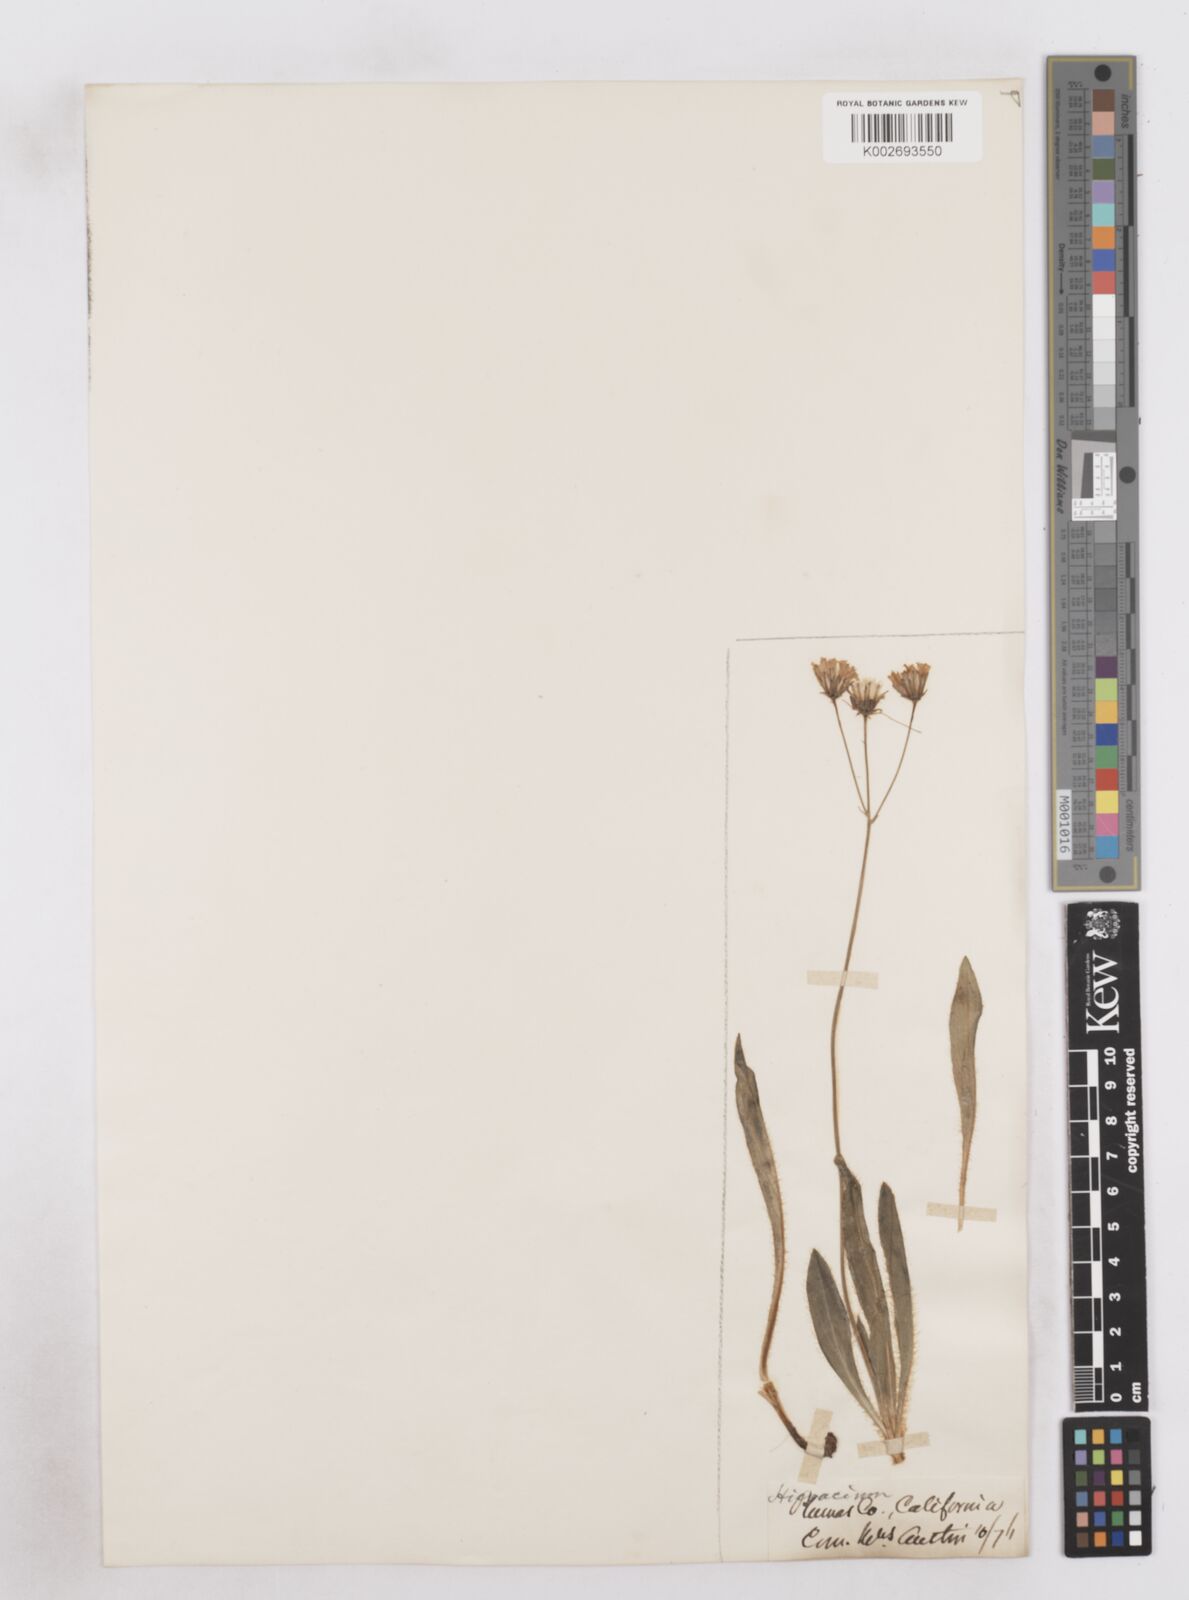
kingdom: Plantae
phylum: Tracheophyta
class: Magnoliopsida
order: Asterales
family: Asteraceae
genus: Hieracium
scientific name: Hieracium
